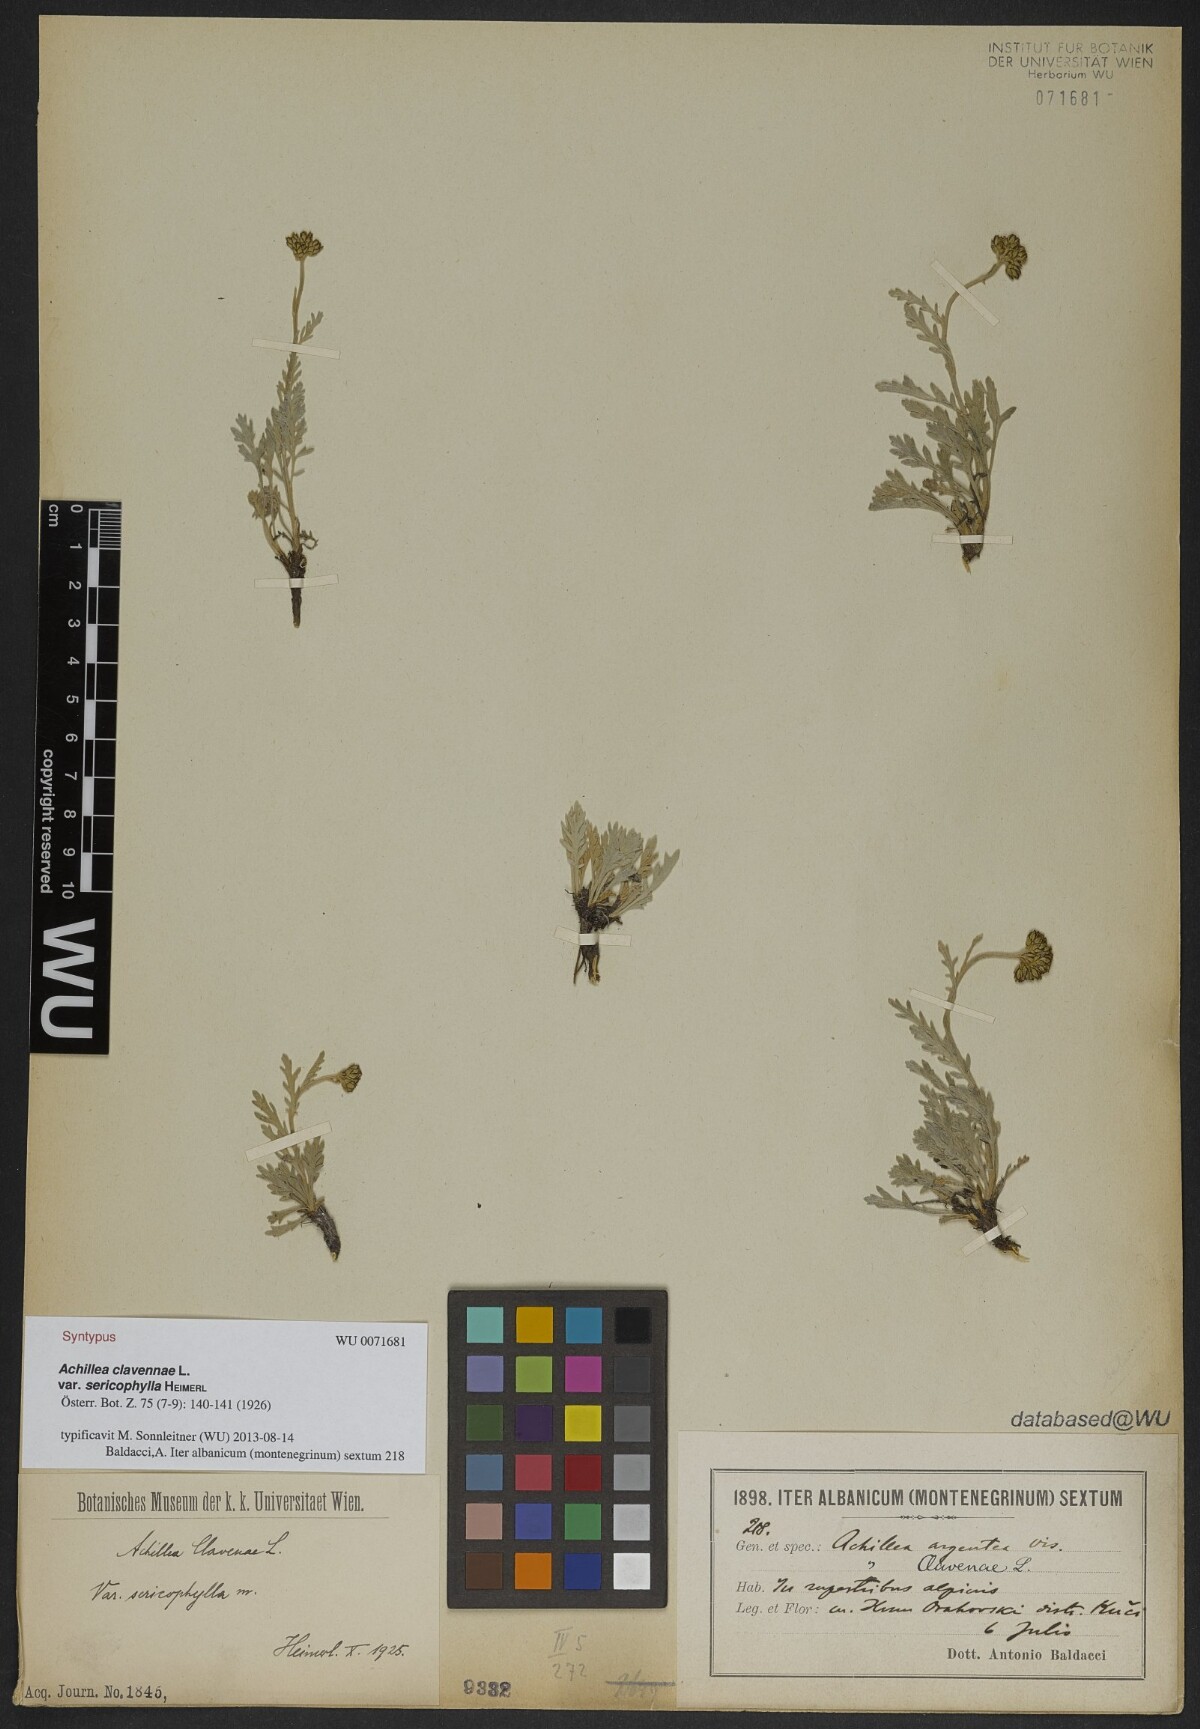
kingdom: Plantae
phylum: Tracheophyta
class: Magnoliopsida
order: Asterales
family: Asteraceae
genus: Achillea
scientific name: Achillea clavennae
